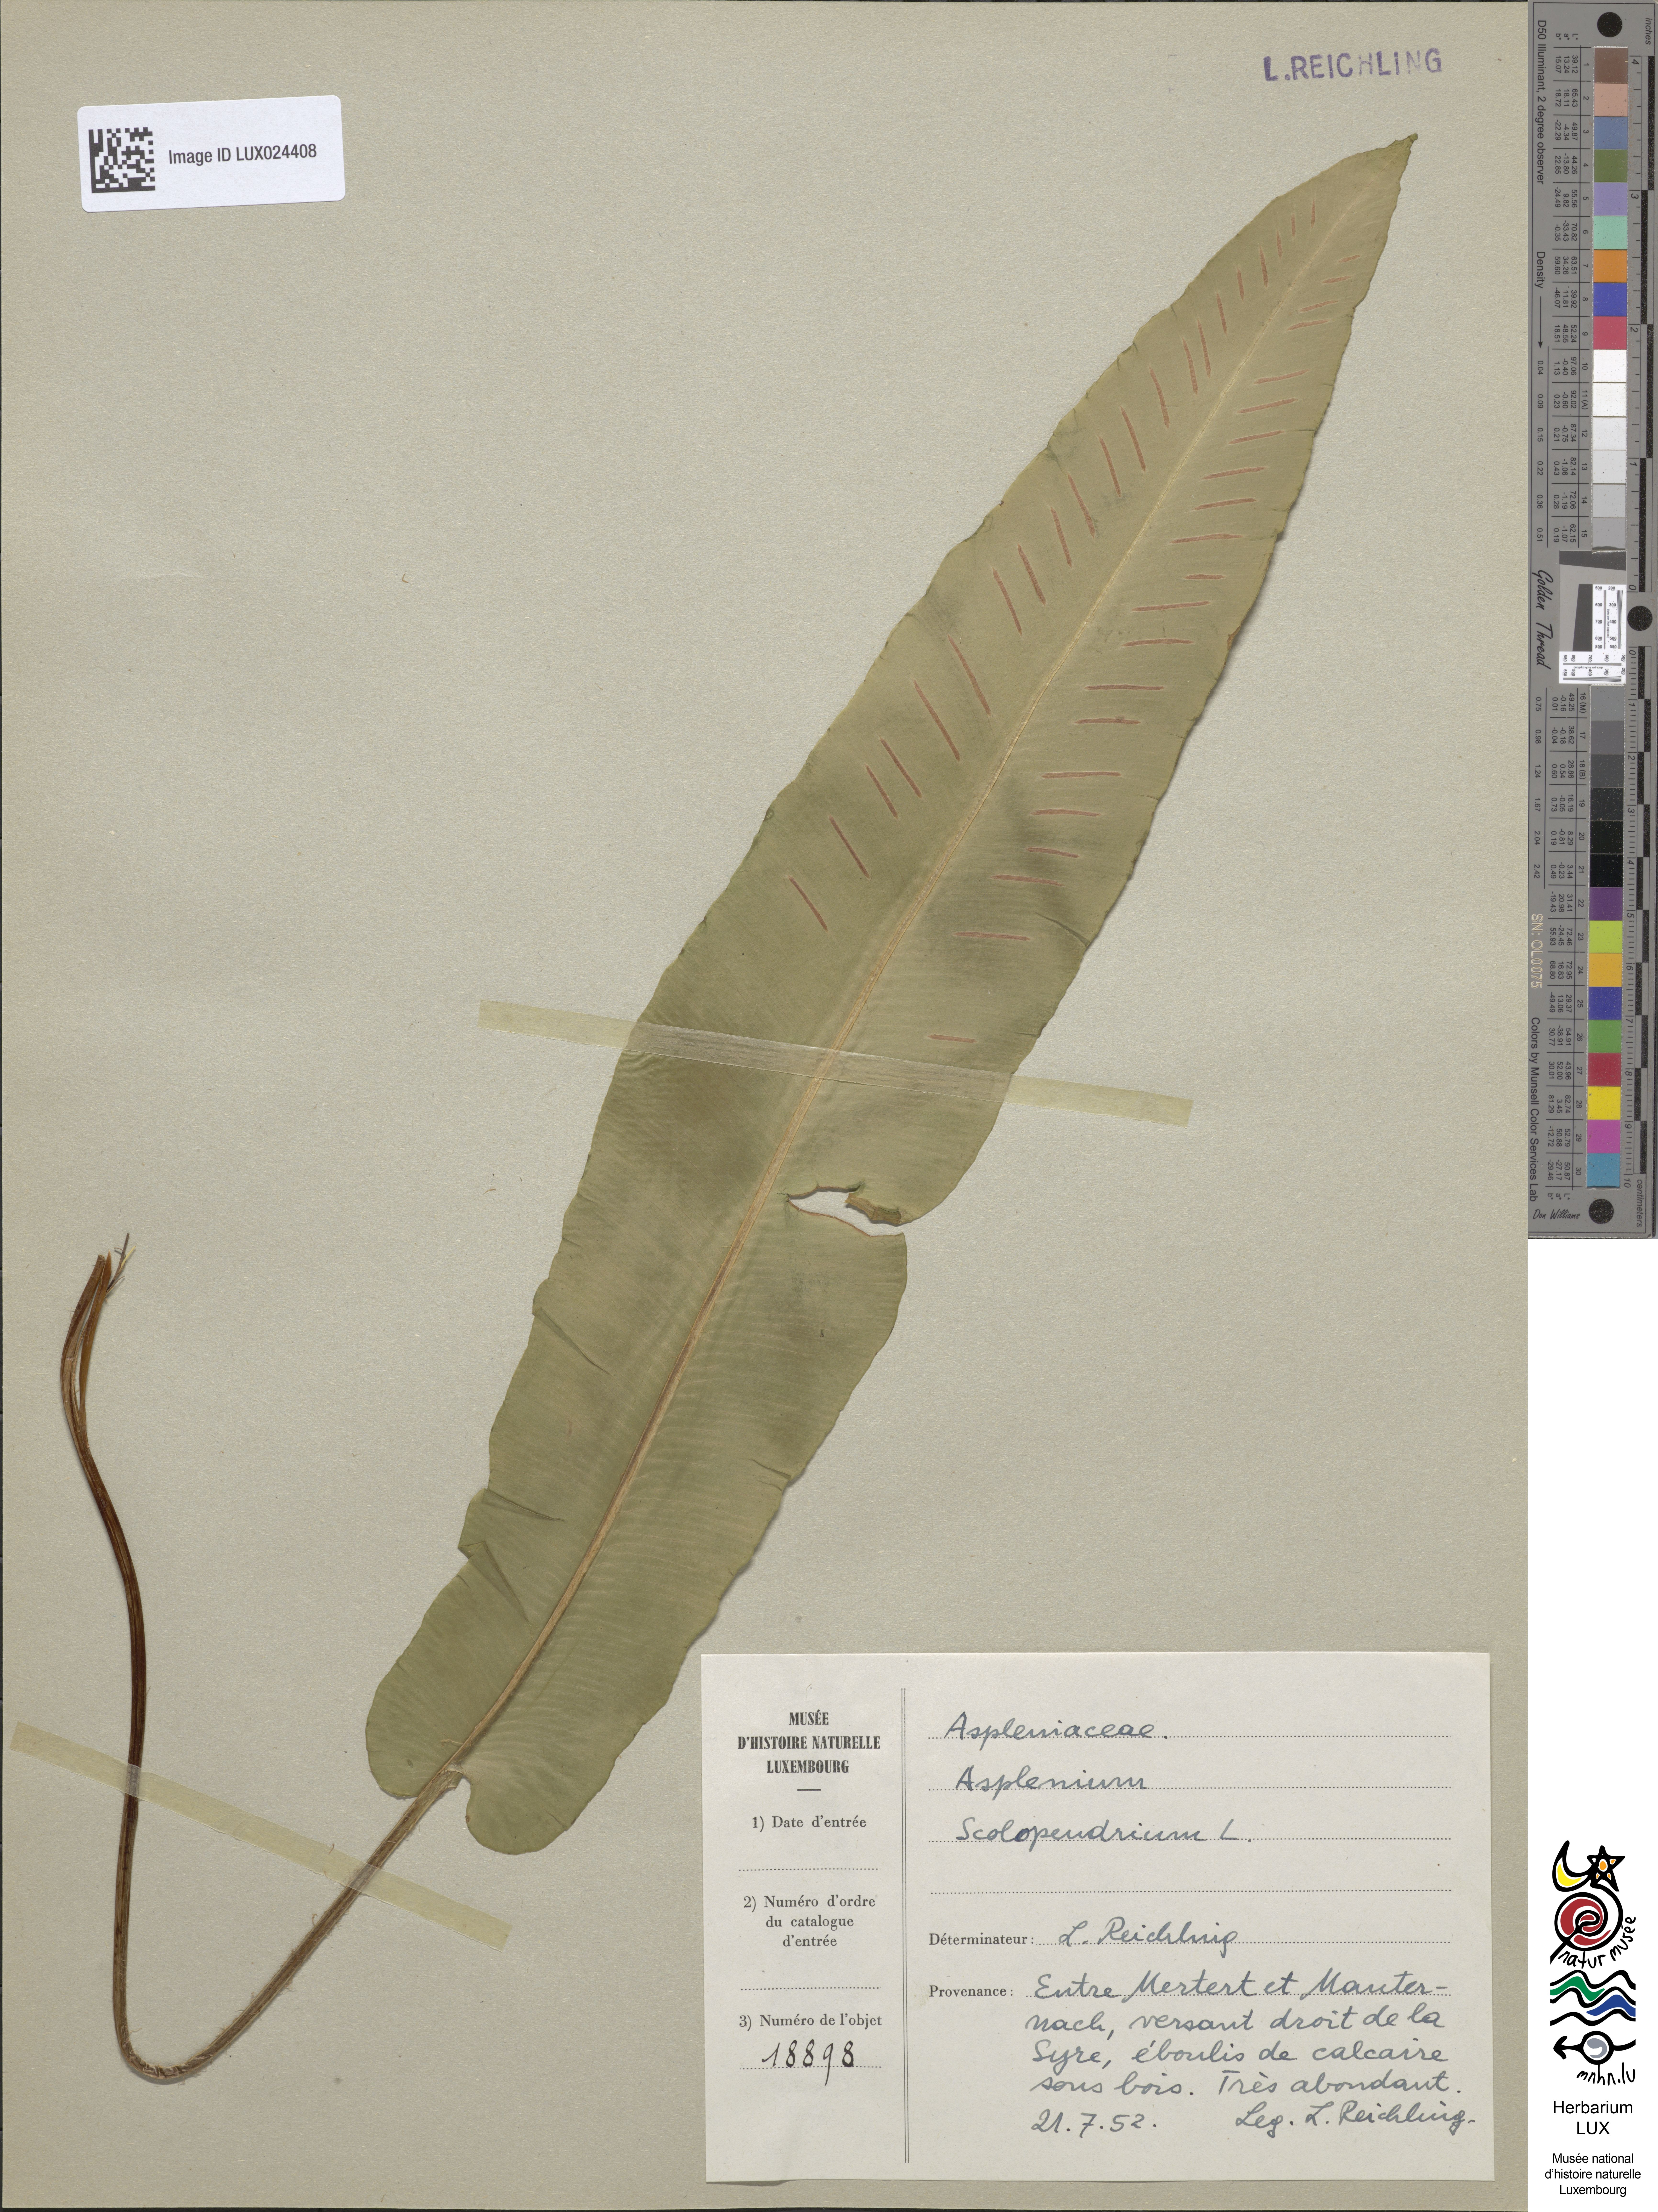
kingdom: Plantae
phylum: Tracheophyta
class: Polypodiopsida
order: Polypodiales
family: Aspleniaceae
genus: Asplenium
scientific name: Asplenium scolopendrium
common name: Hart's-tongue fern
